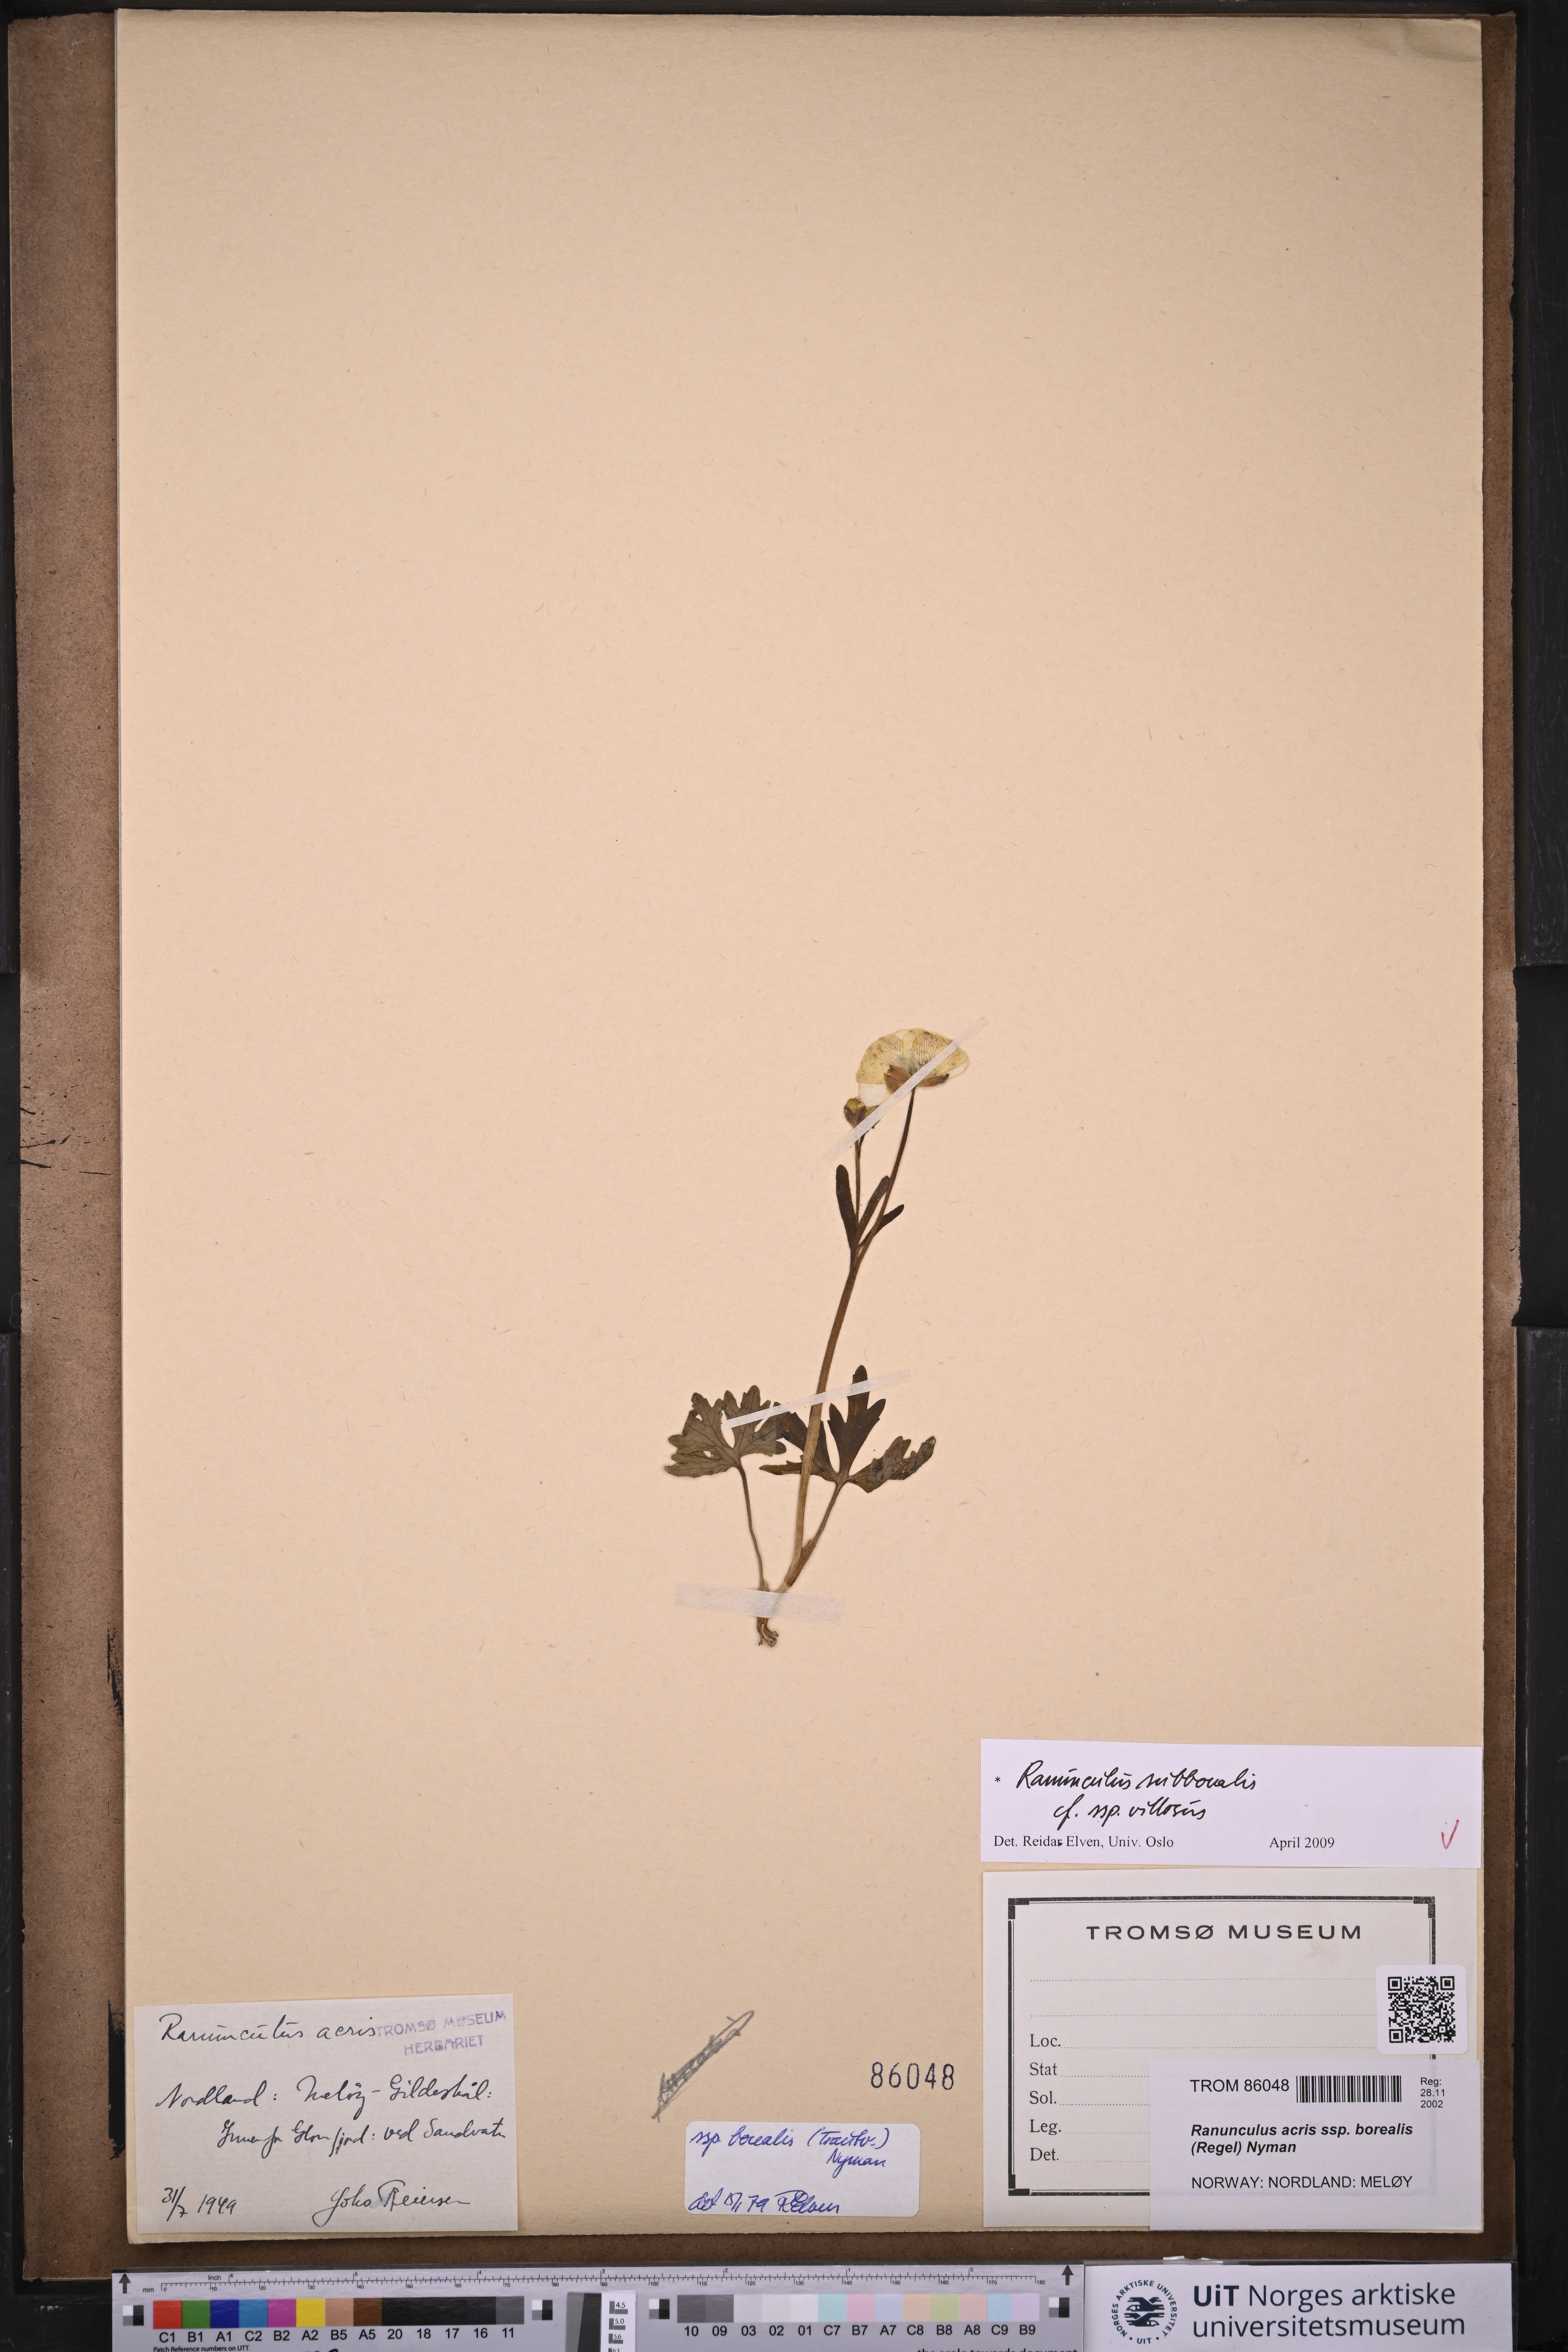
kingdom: Plantae
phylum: Tracheophyta
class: Magnoliopsida
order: Ranunculales
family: Ranunculaceae
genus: Ranunculus
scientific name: Ranunculus propinquus
